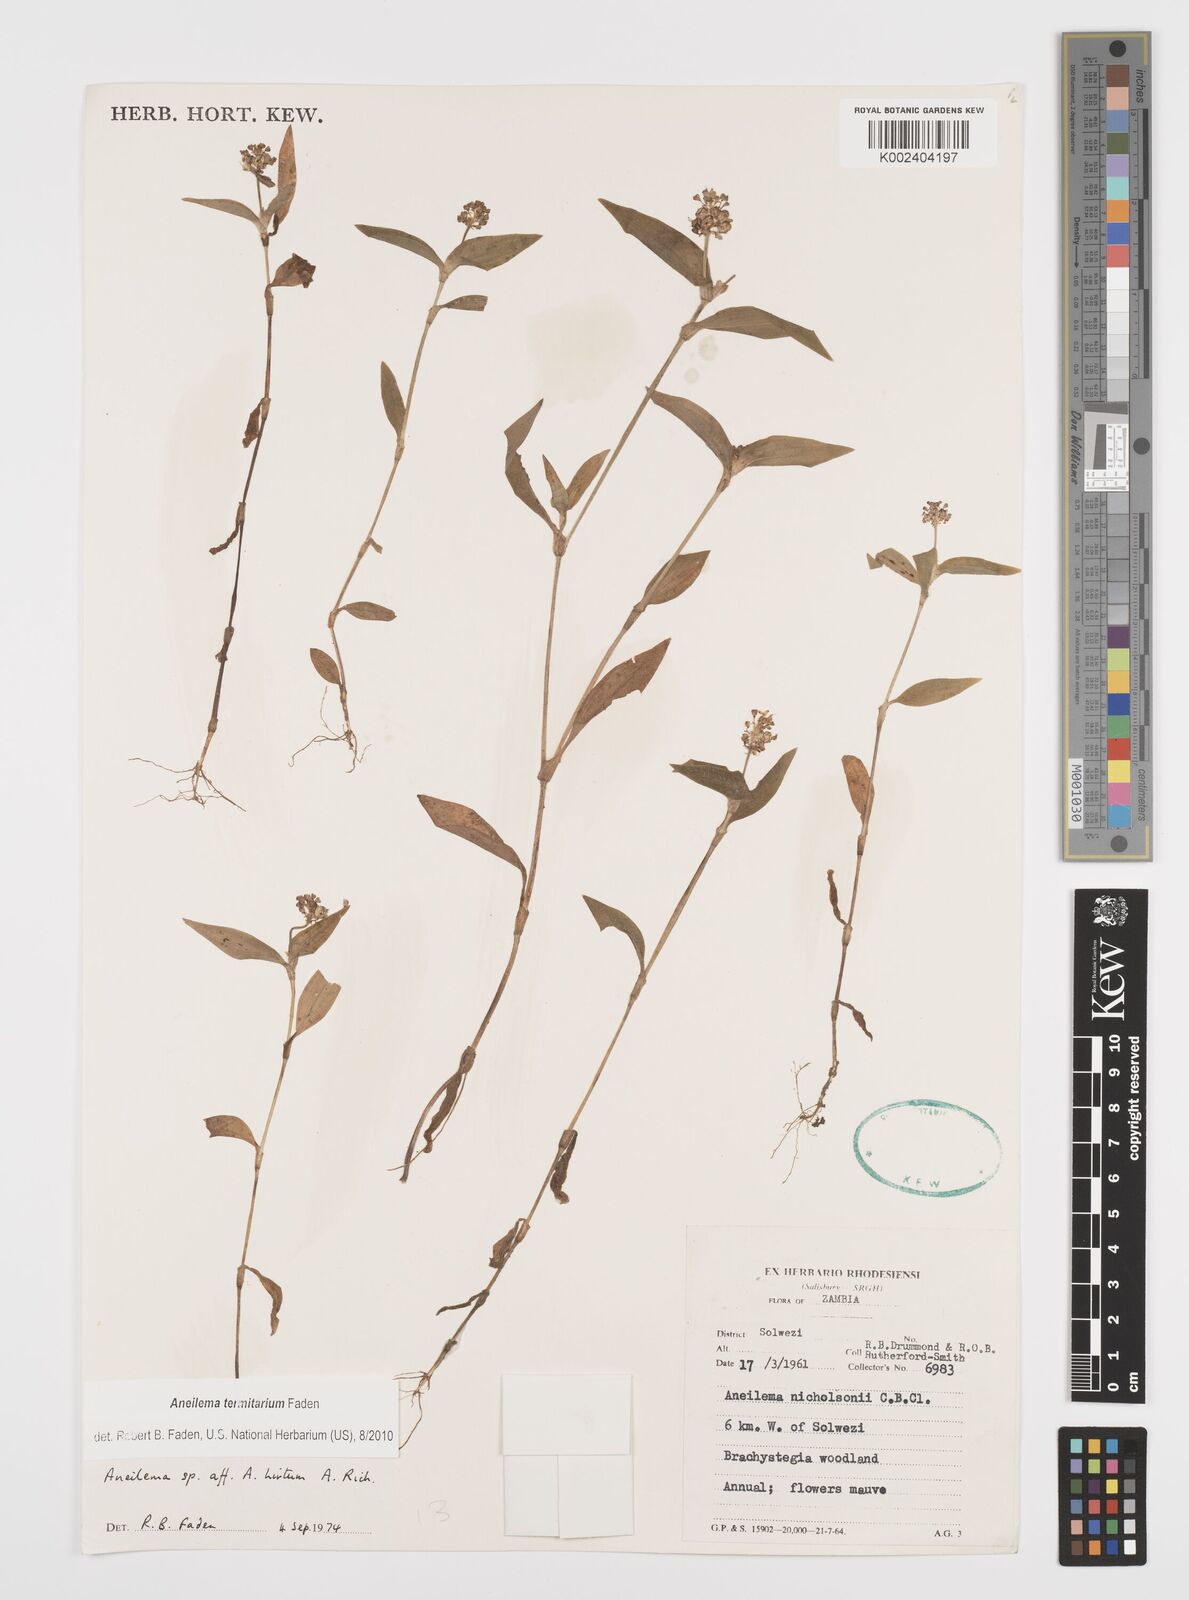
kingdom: Plantae
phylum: Tracheophyta
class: Liliopsida
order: Commelinales
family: Commelinaceae
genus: Aneilema
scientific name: Aneilema termitarium
